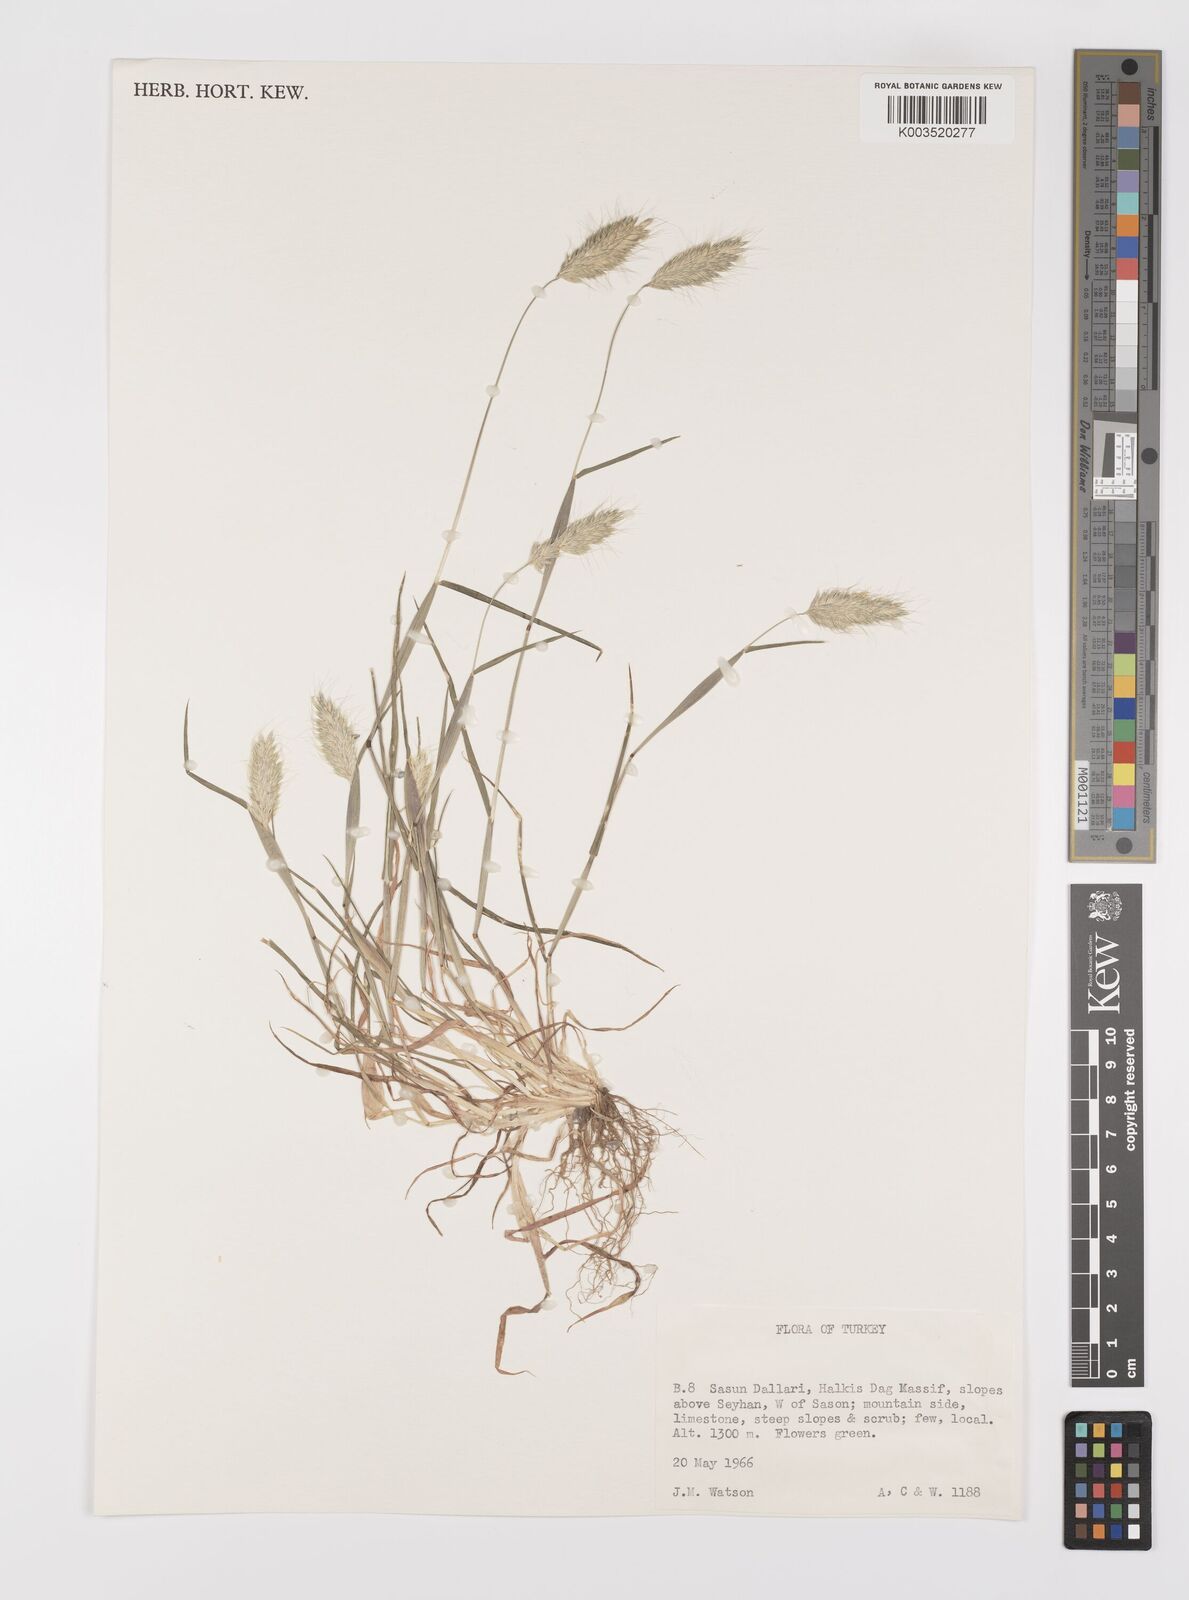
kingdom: Plantae
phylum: Tracheophyta
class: Liliopsida
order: Poales
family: Poaceae
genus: Alopecurus
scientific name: Alopecurus utriculatus
